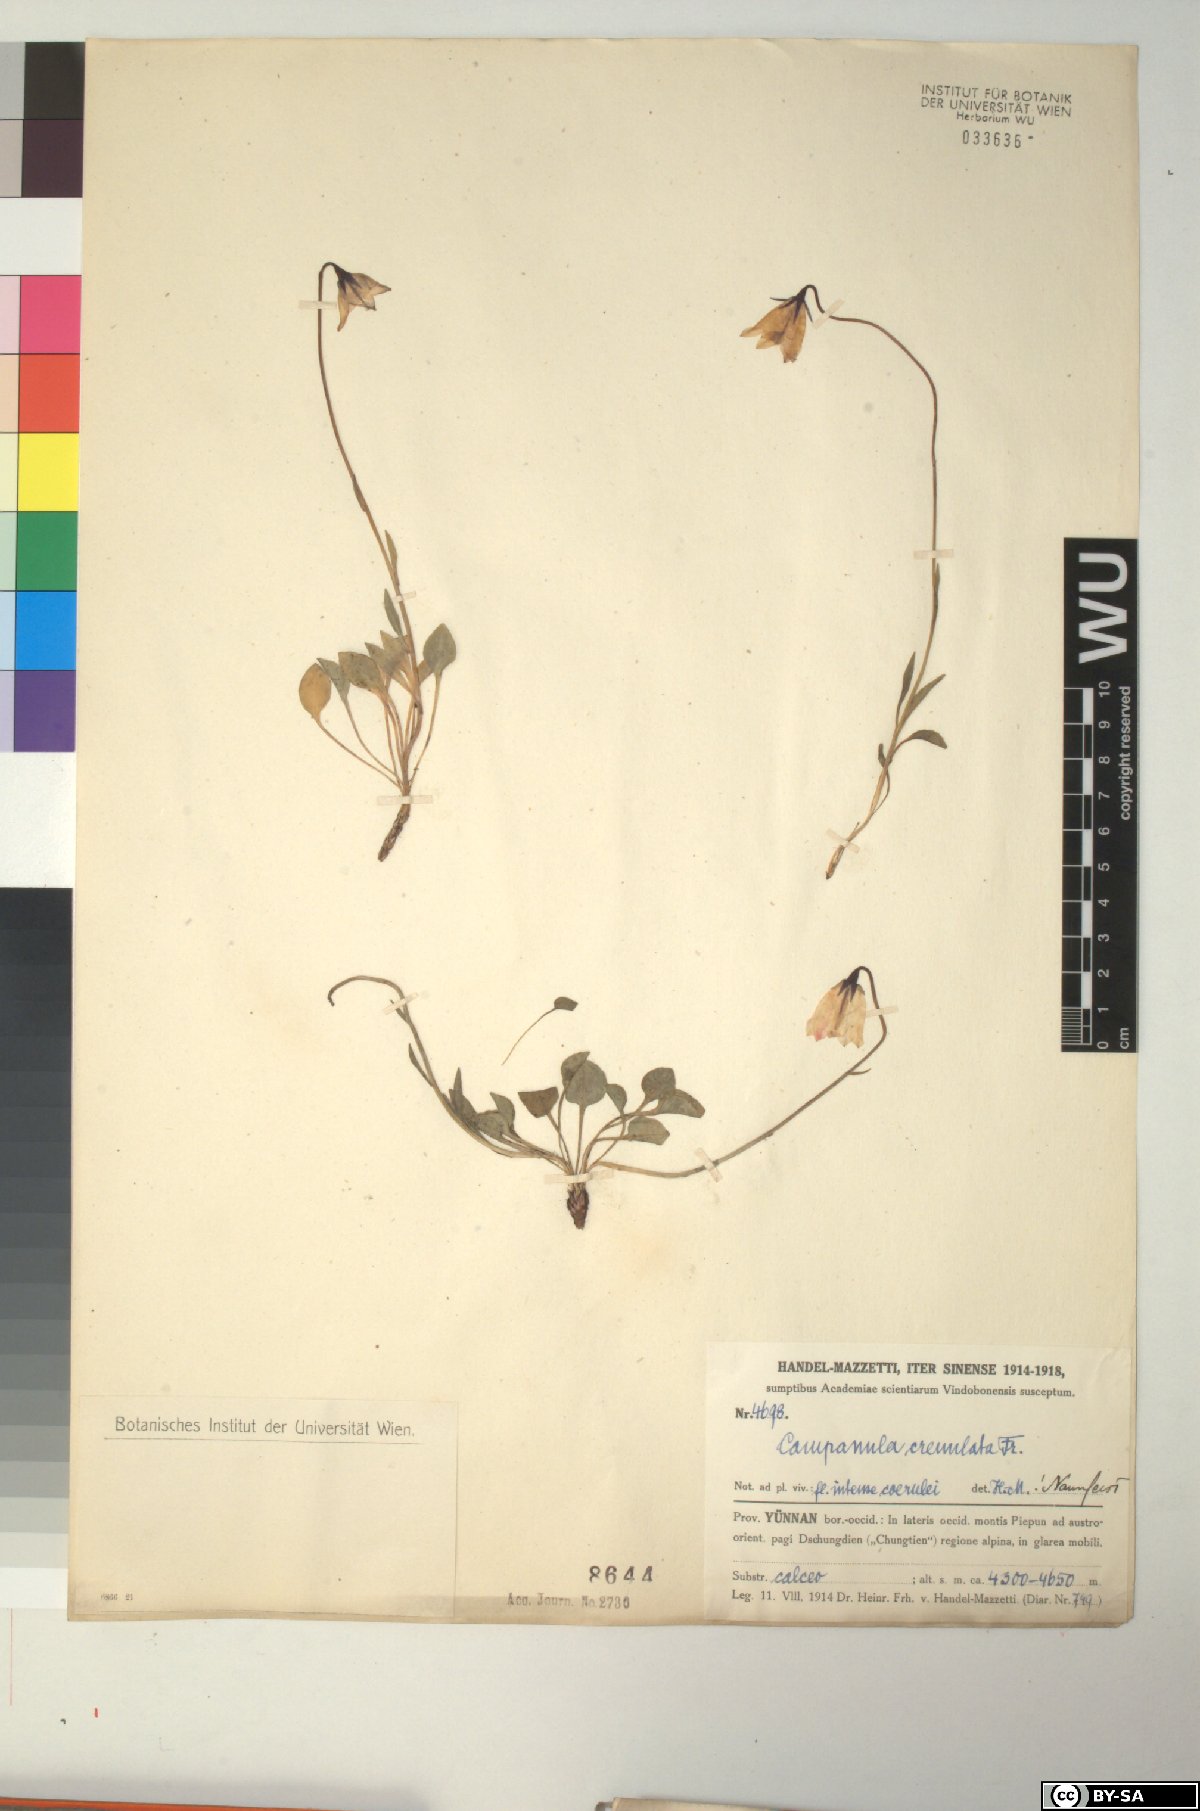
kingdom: Plantae
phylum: Tracheophyta
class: Magnoliopsida
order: Asterales
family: Campanulaceae
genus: Campanula
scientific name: Campanula crenulata
